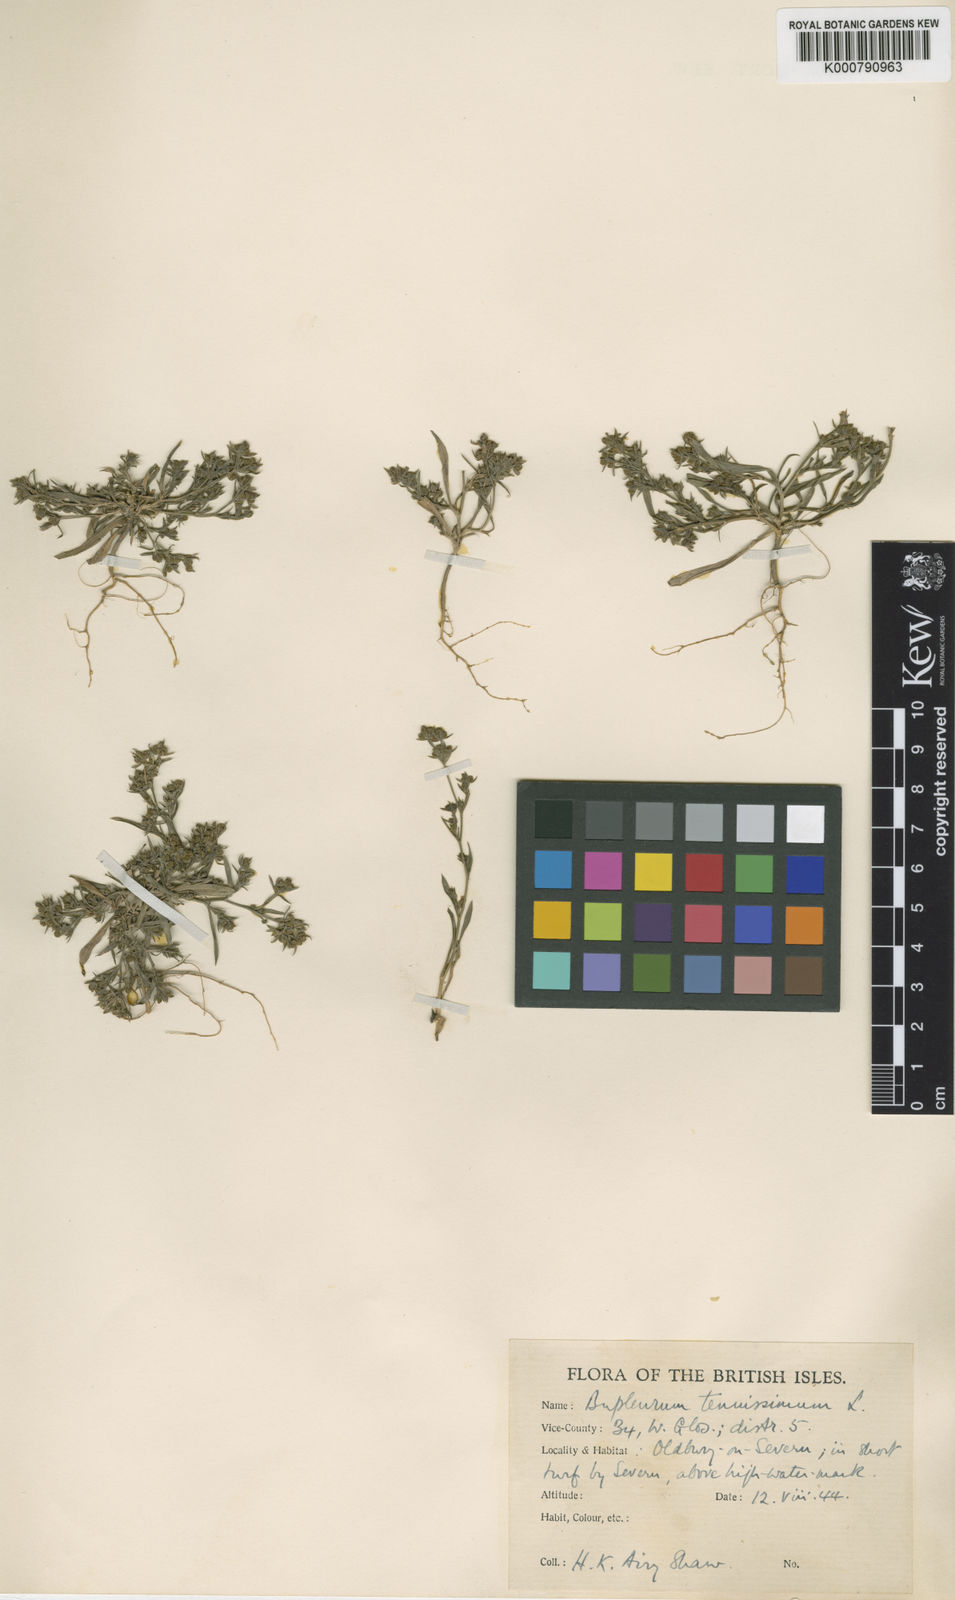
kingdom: Plantae
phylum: Tracheophyta
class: Magnoliopsida
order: Apiales
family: Apiaceae
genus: Bupleurum
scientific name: Bupleurum tenuissimum
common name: Slender hare's-ear
